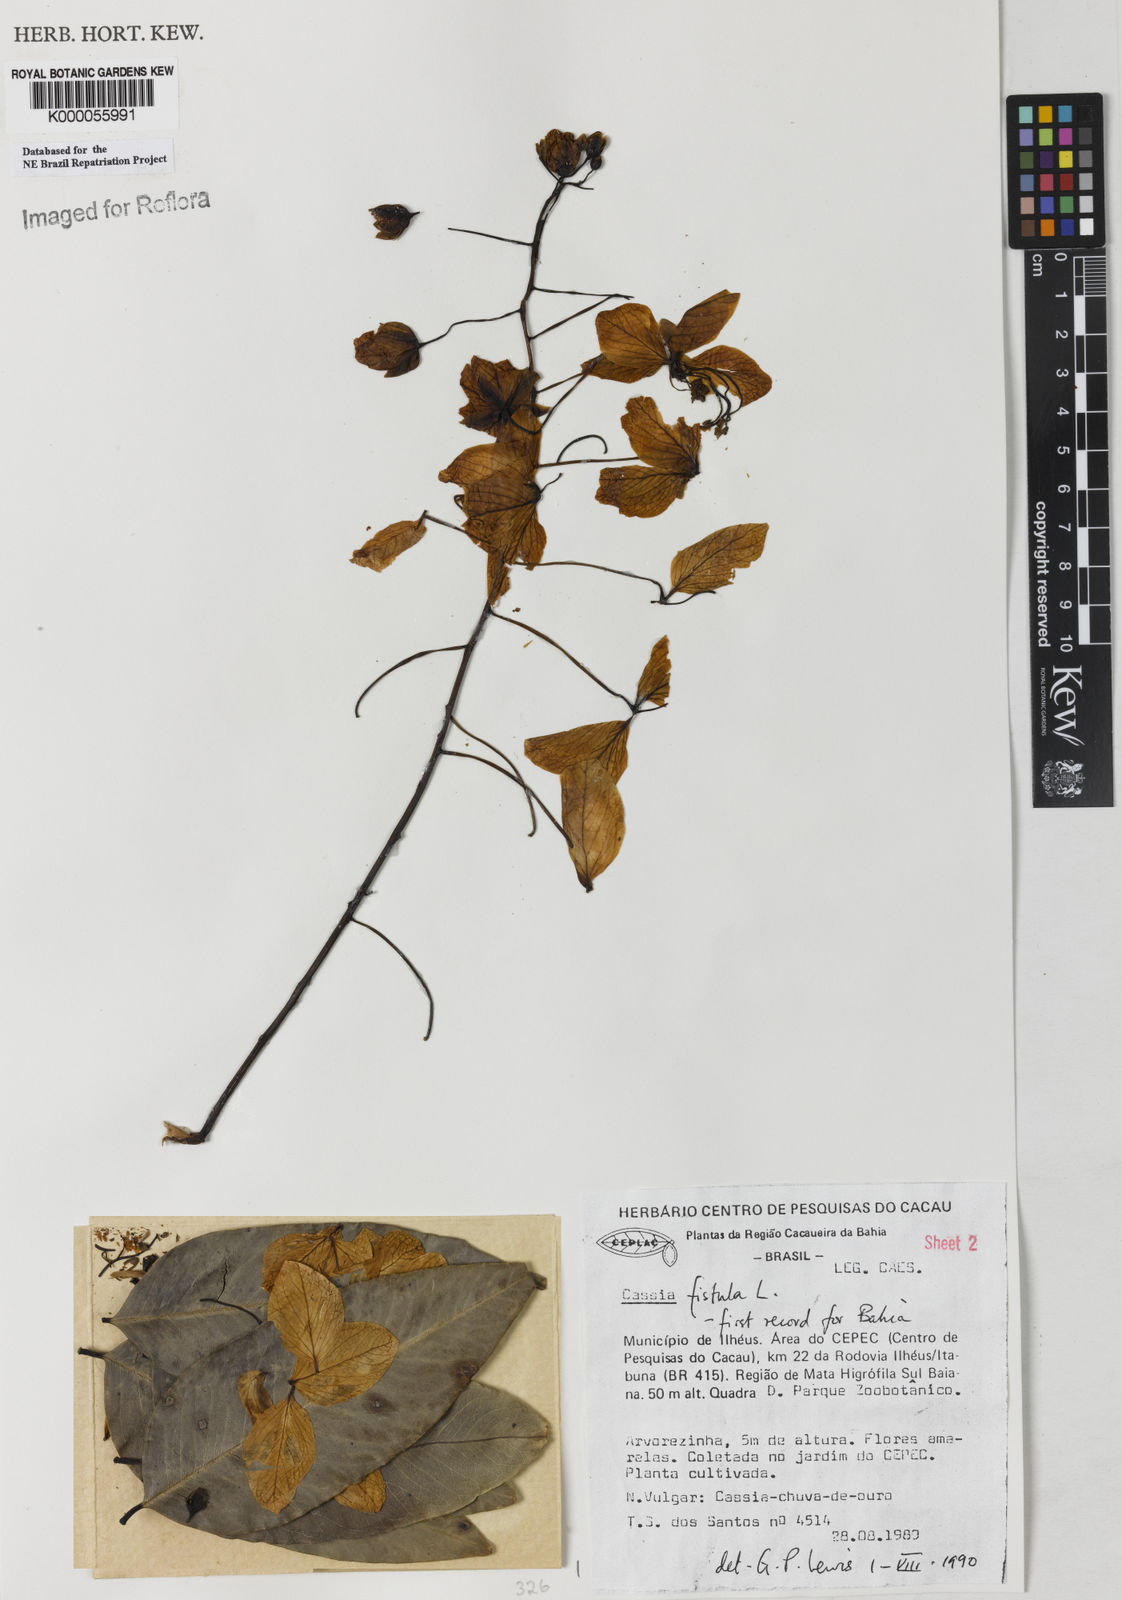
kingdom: Plantae
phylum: Tracheophyta
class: Magnoliopsida
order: Fabales
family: Fabaceae
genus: Cassia
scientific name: Cassia fistula
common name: Golden shower
